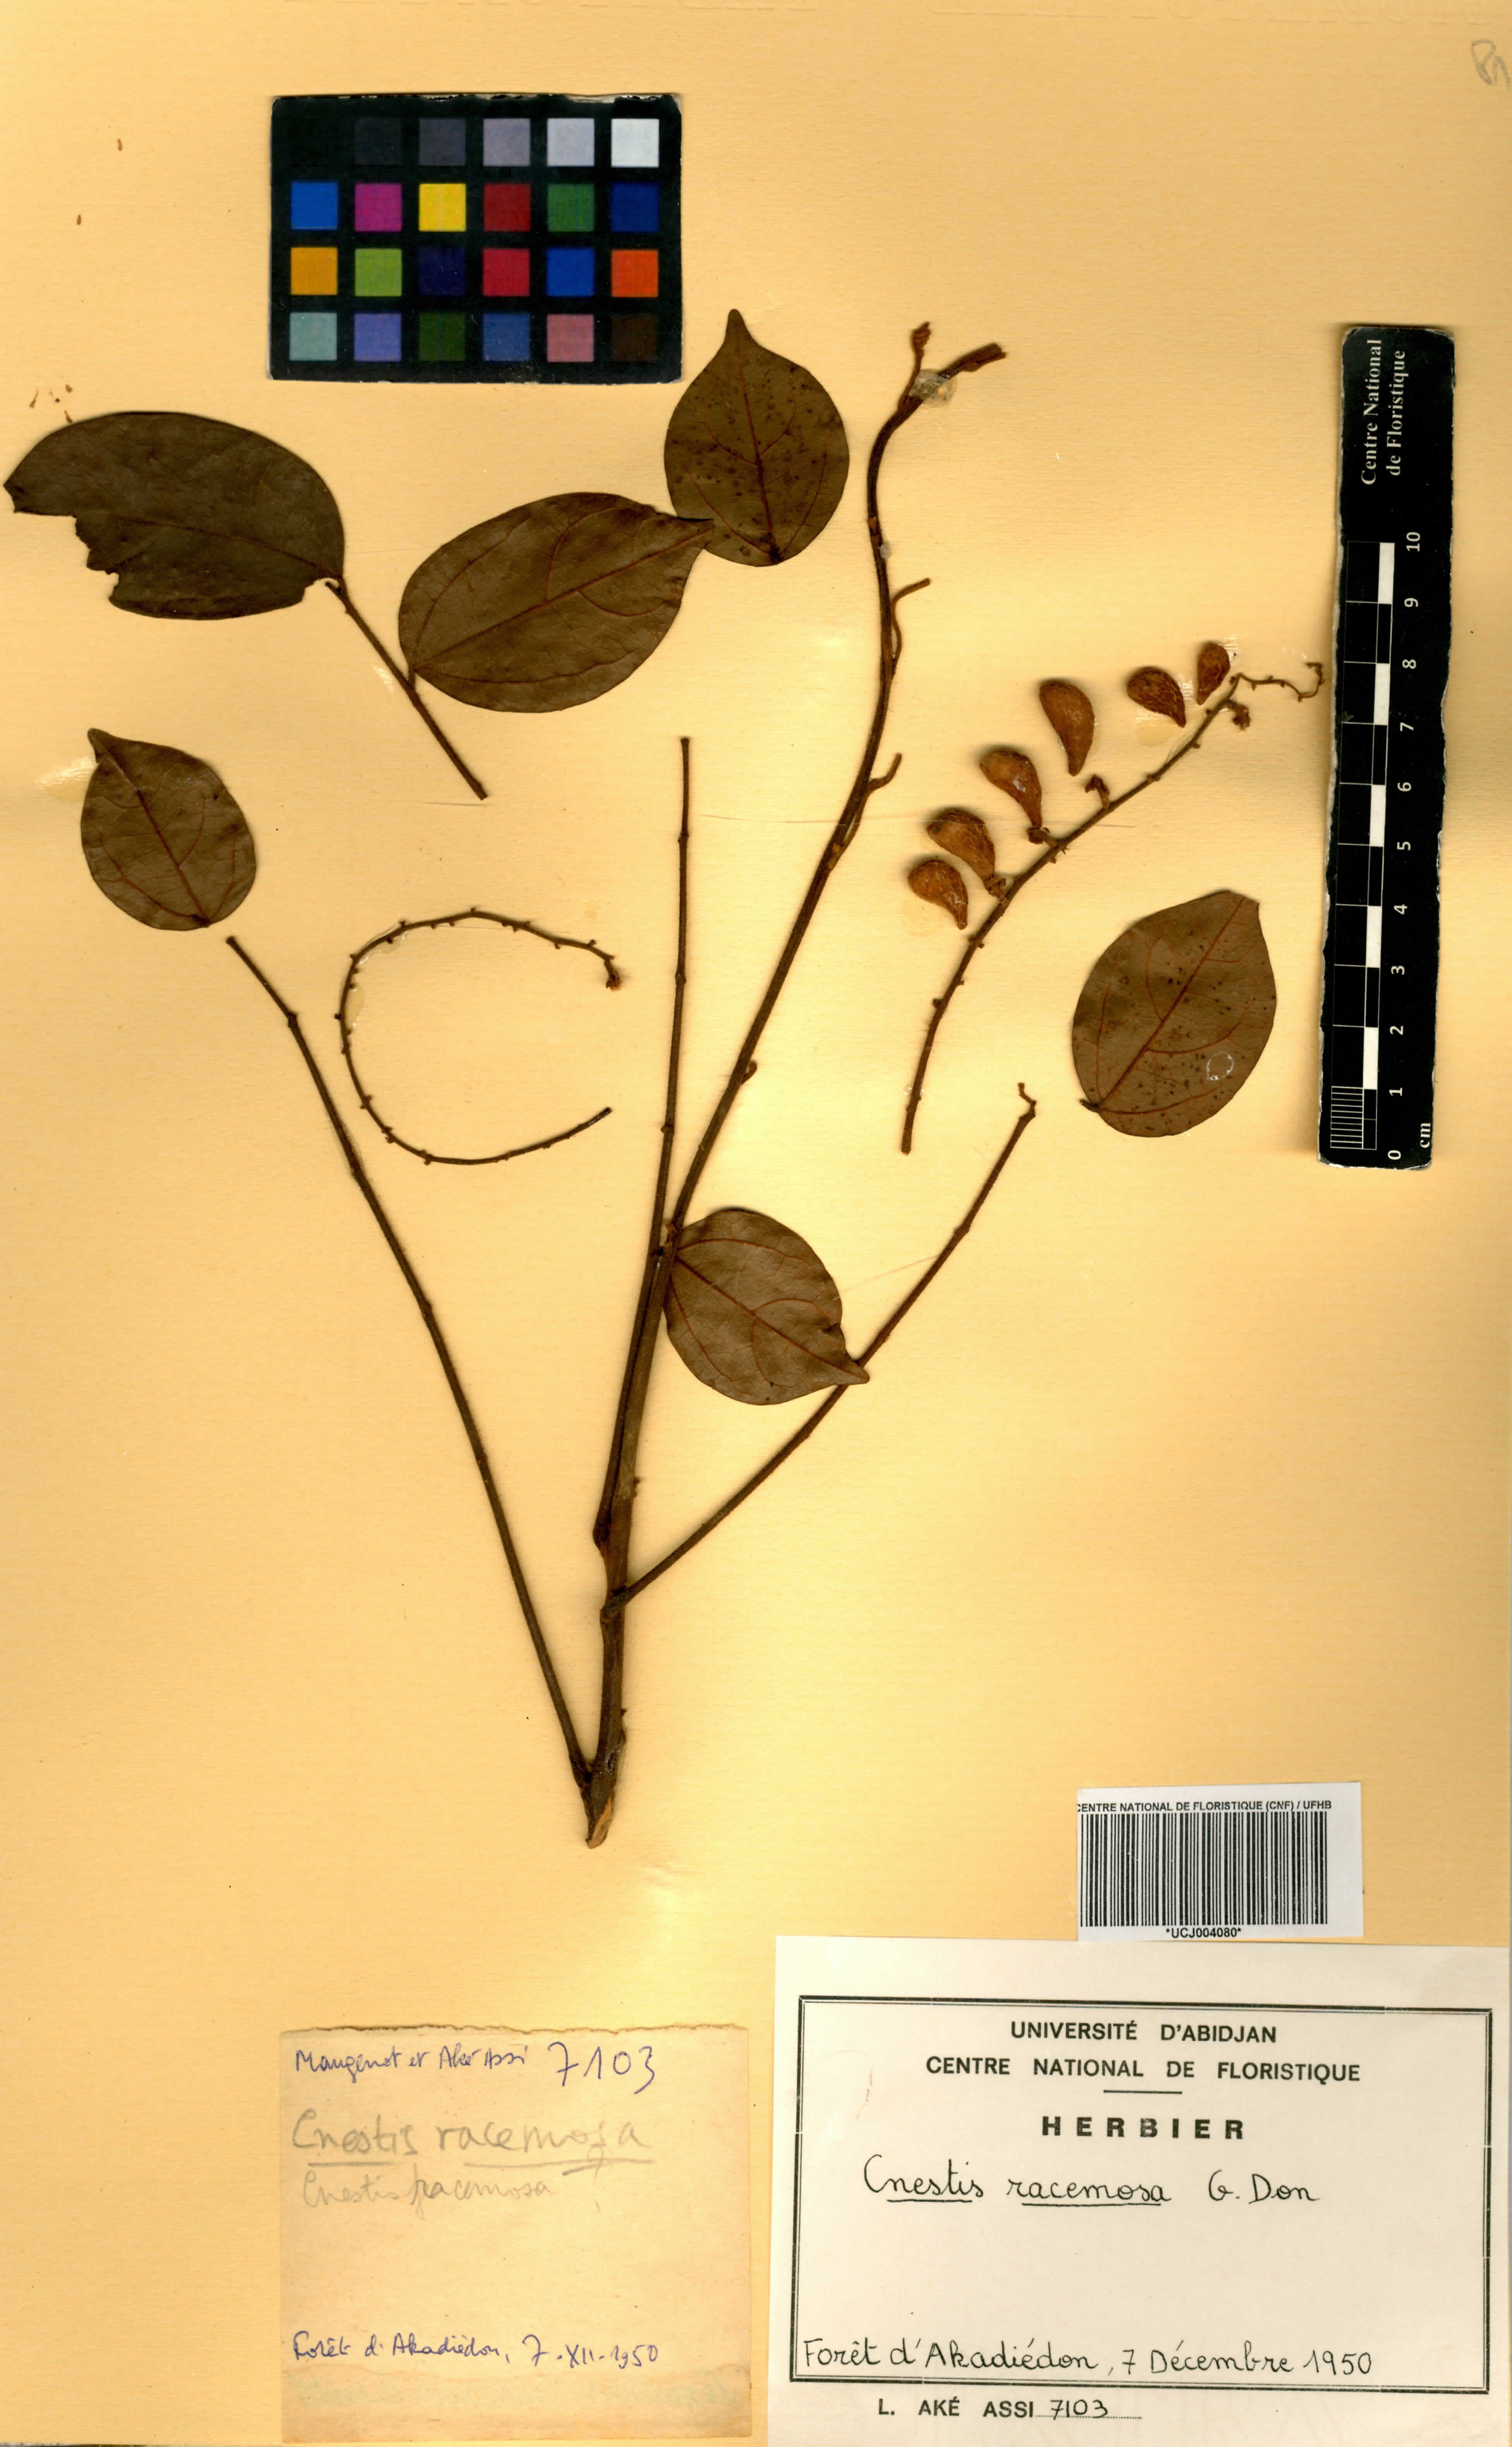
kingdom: Plantae
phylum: Tracheophyta
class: Magnoliopsida
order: Oxalidales
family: Connaraceae
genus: Cnestis
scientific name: Cnestis racemosa
